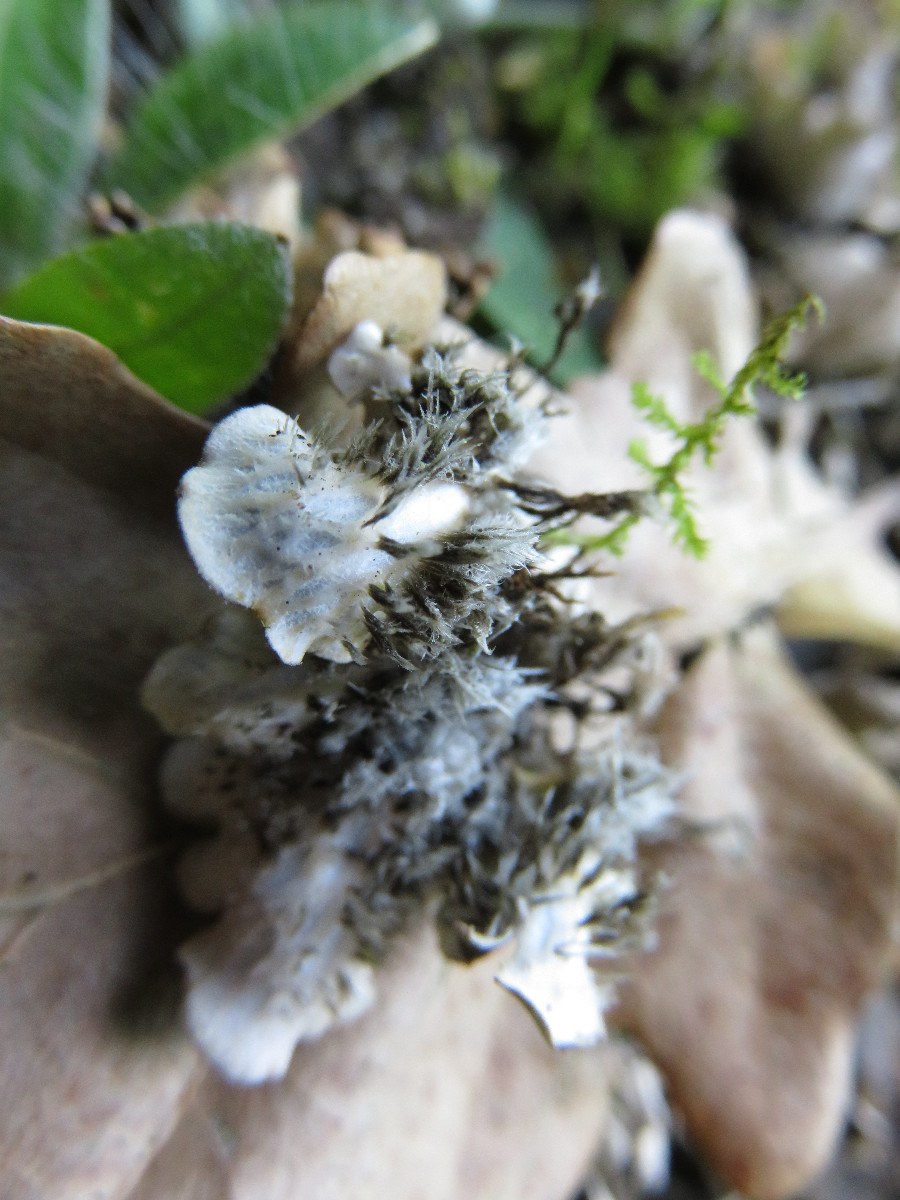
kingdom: Fungi
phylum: Ascomycota
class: Lecanoromycetes
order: Peltigerales
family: Peltigeraceae
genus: Peltigera
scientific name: Peltigera rufescens
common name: brun skjoldlav
